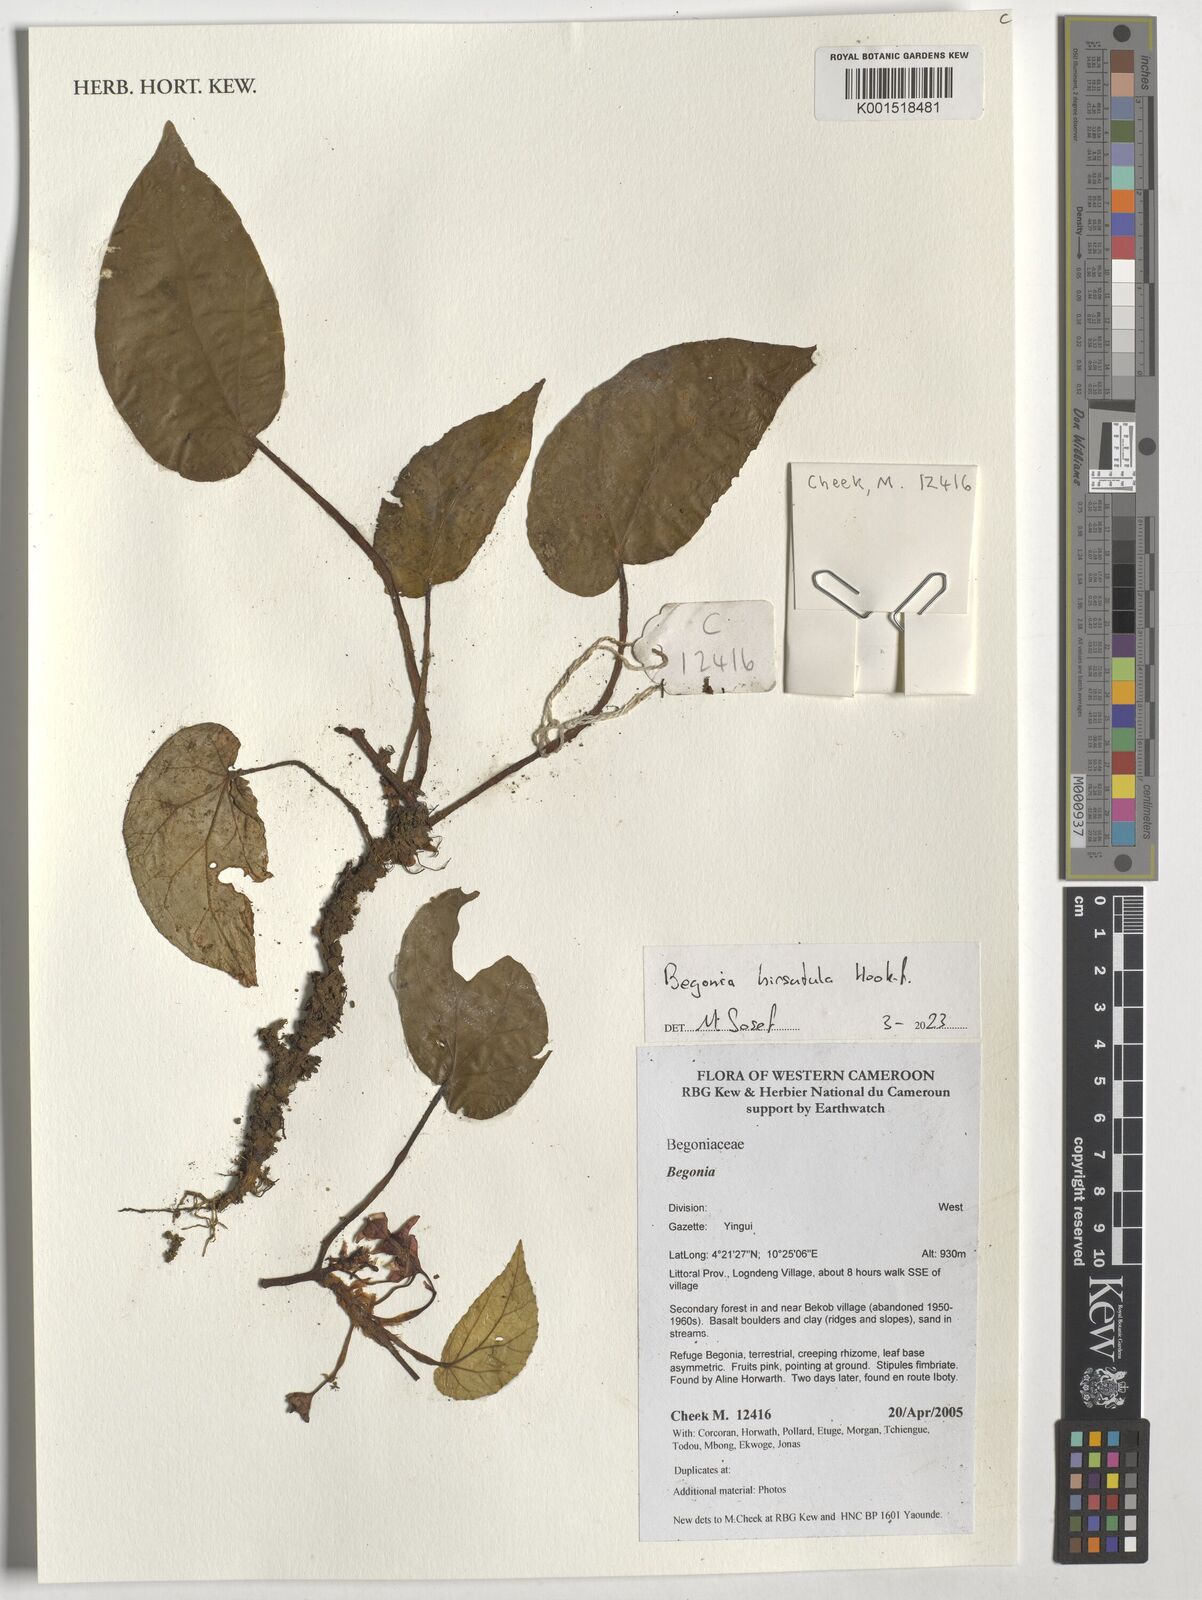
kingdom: Plantae
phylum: Tracheophyta
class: Magnoliopsida
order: Cucurbitales
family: Begoniaceae
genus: Begonia
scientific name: Begonia hirsutula
